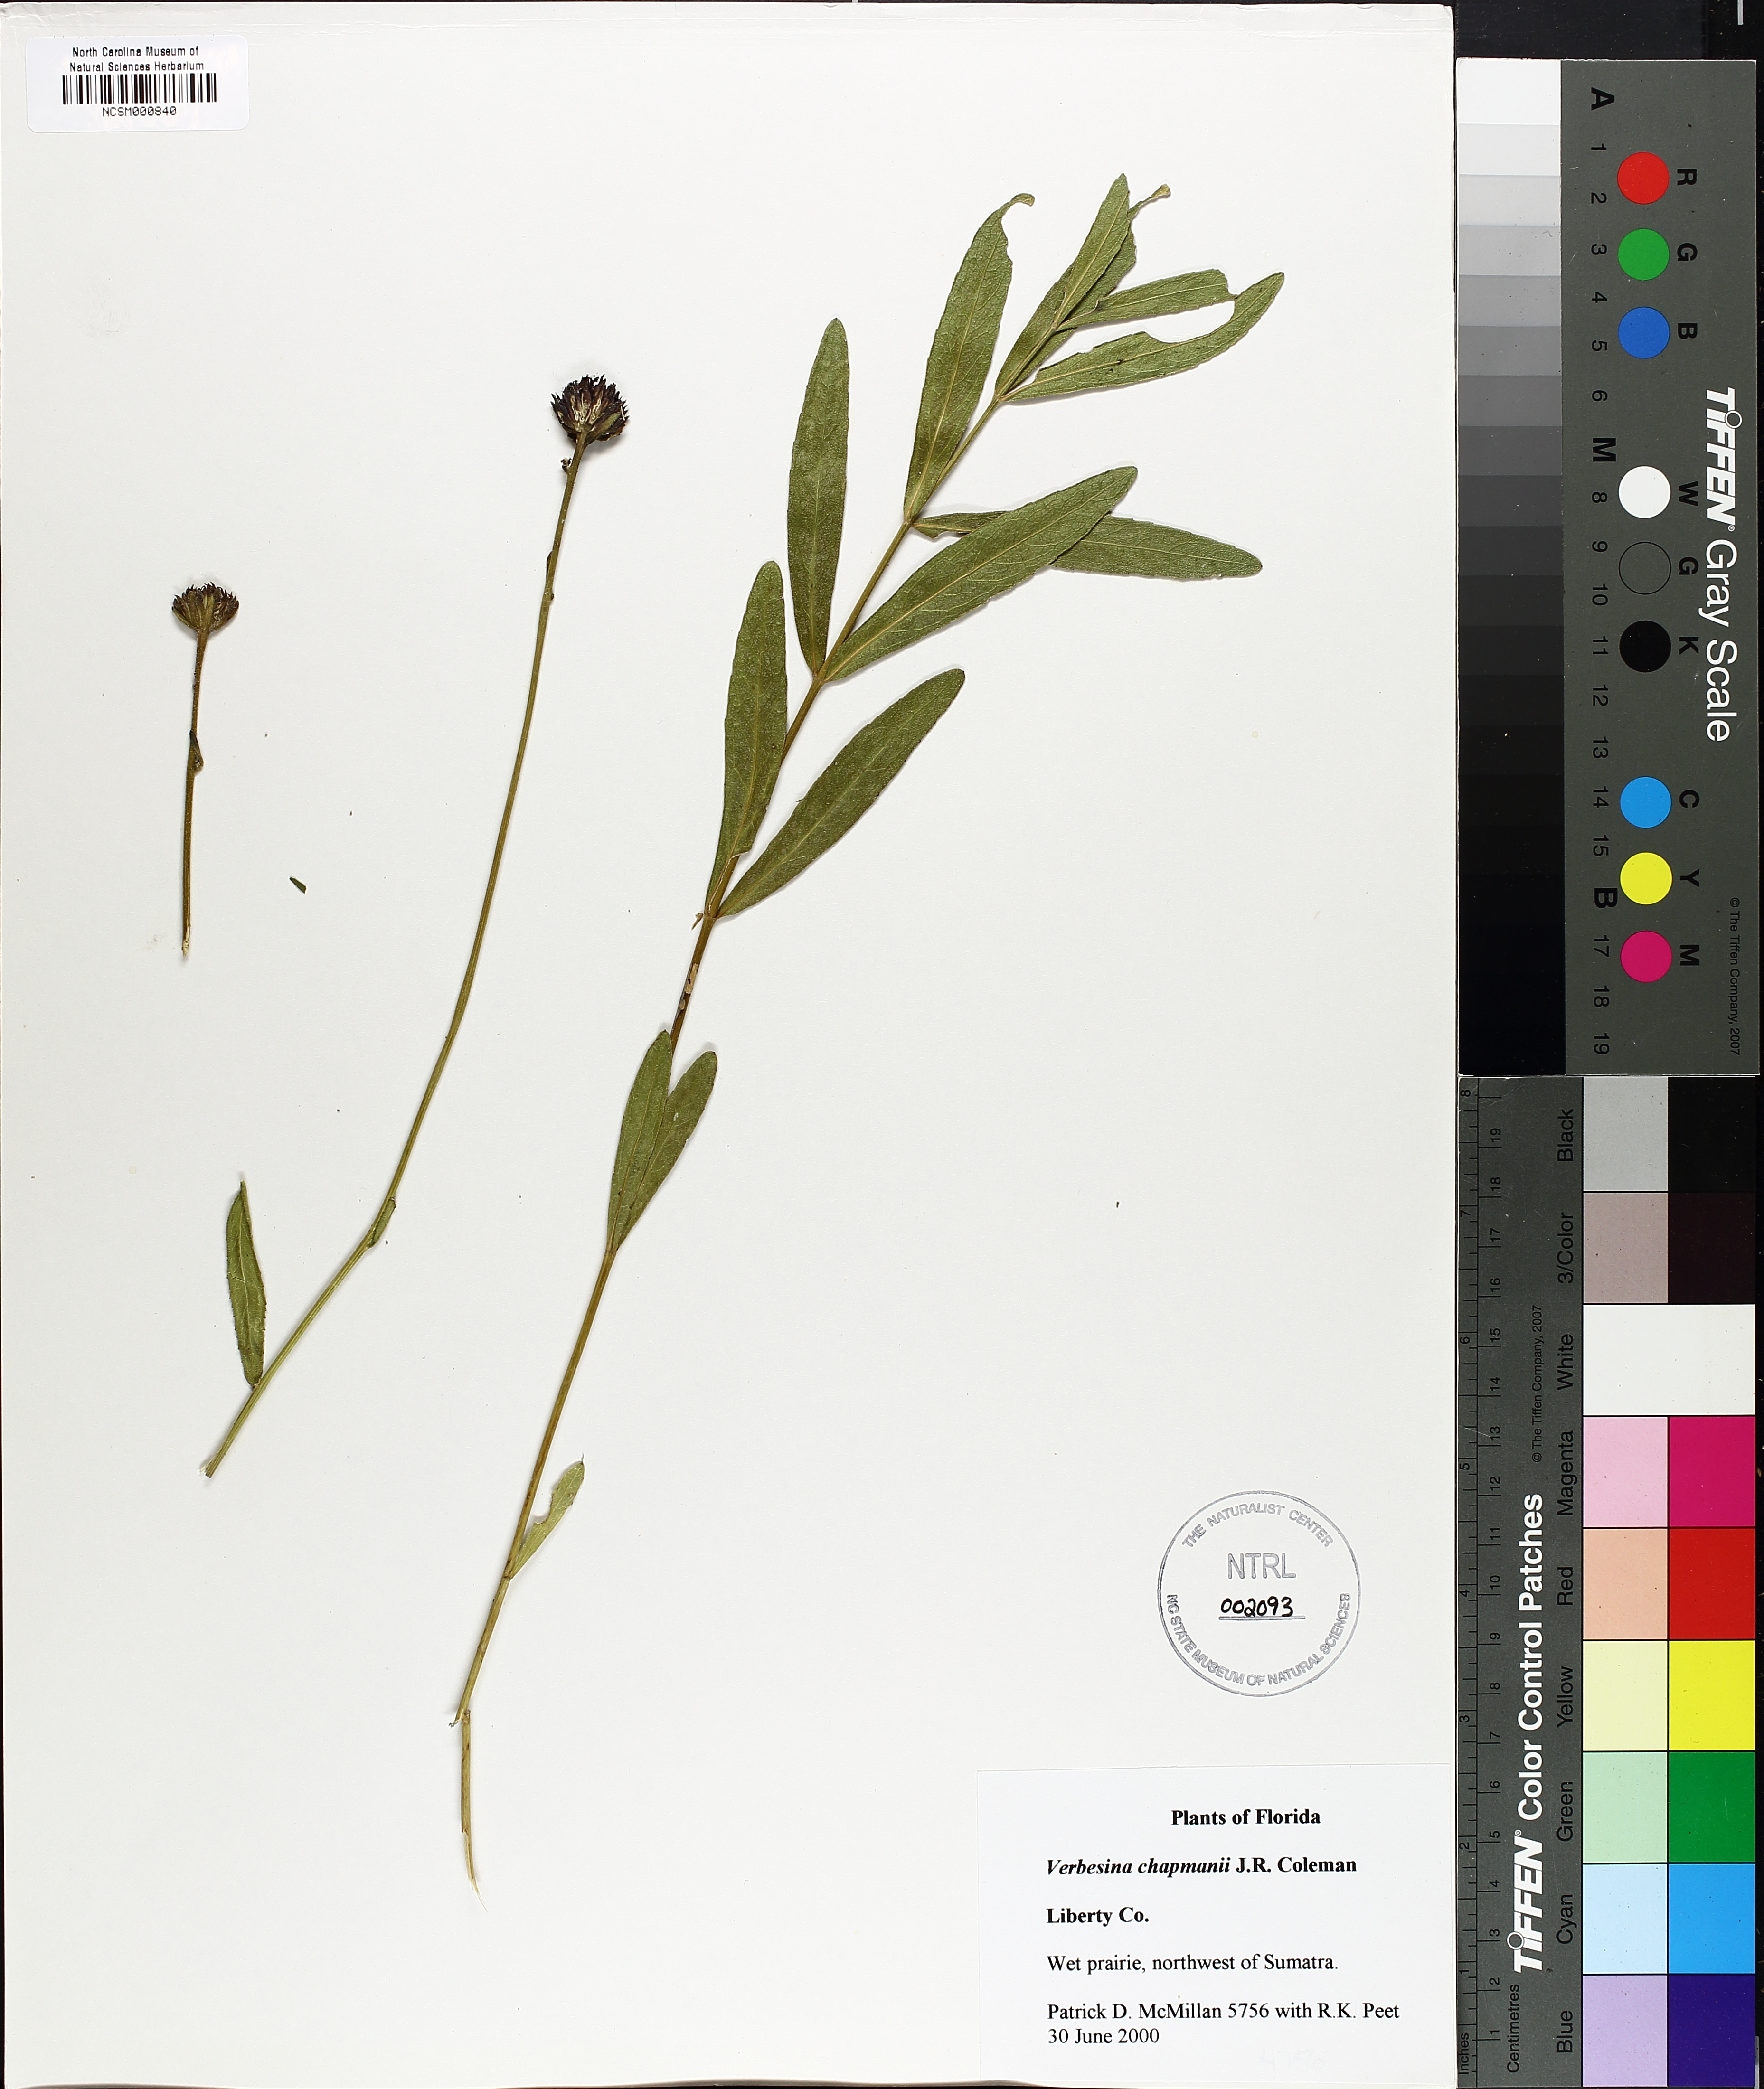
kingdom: Plantae
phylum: Tracheophyta
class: Magnoliopsida
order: Asterales
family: Asteraceae
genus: Verbesina
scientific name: Verbesina chapmanii
